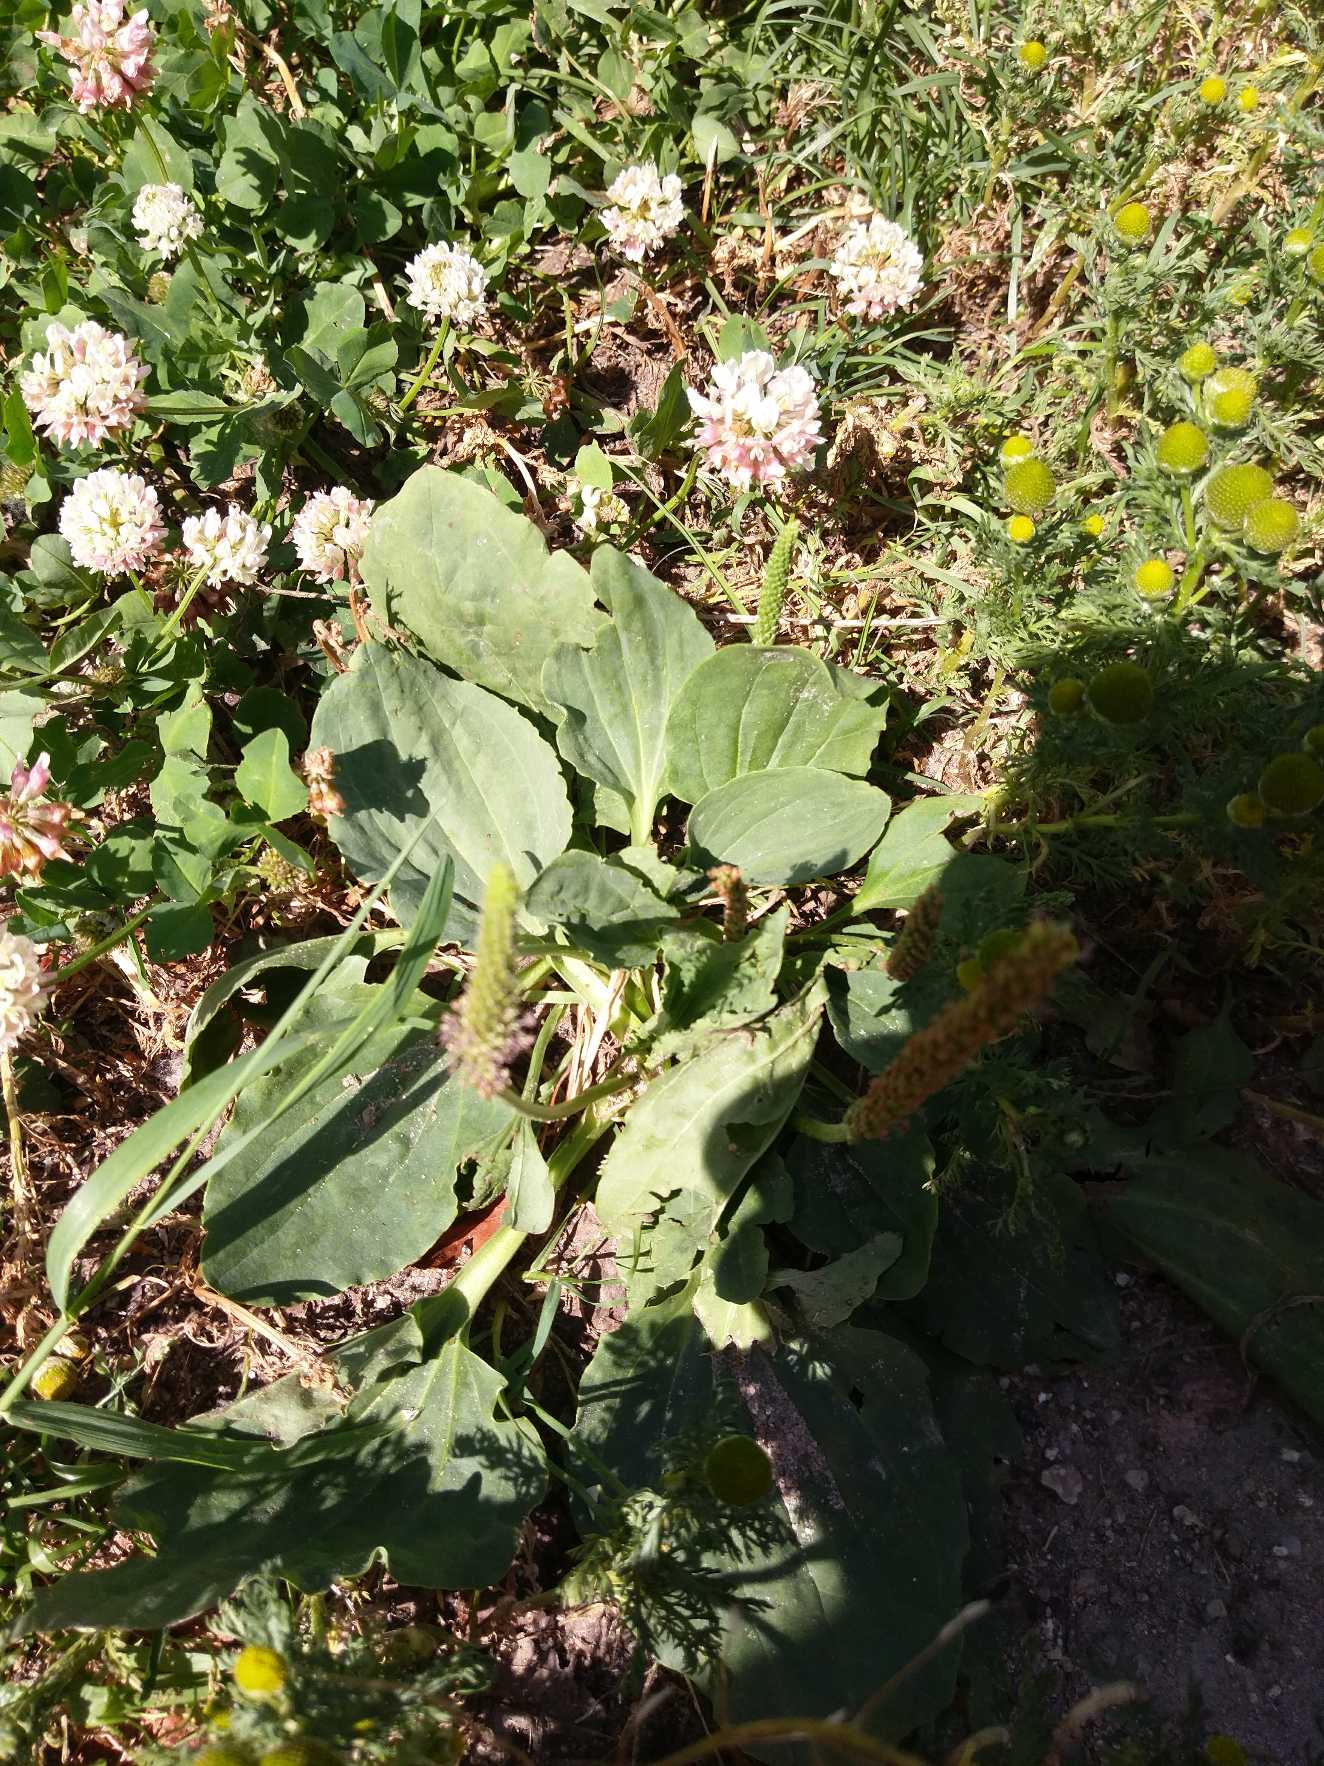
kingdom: Plantae
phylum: Tracheophyta
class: Magnoliopsida
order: Lamiales
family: Plantaginaceae
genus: Plantago
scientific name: Plantago major
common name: Glat vejbred
